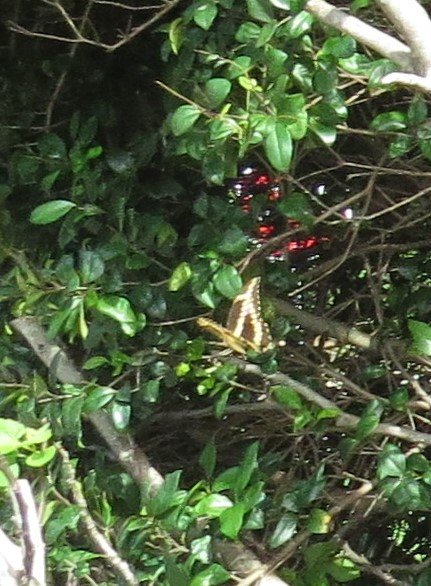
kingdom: Animalia
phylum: Arthropoda
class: Insecta
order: Lepidoptera
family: Papilionidae
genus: Papilio
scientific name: Papilio cresphontes
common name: Eastern Giant Swallowtail
